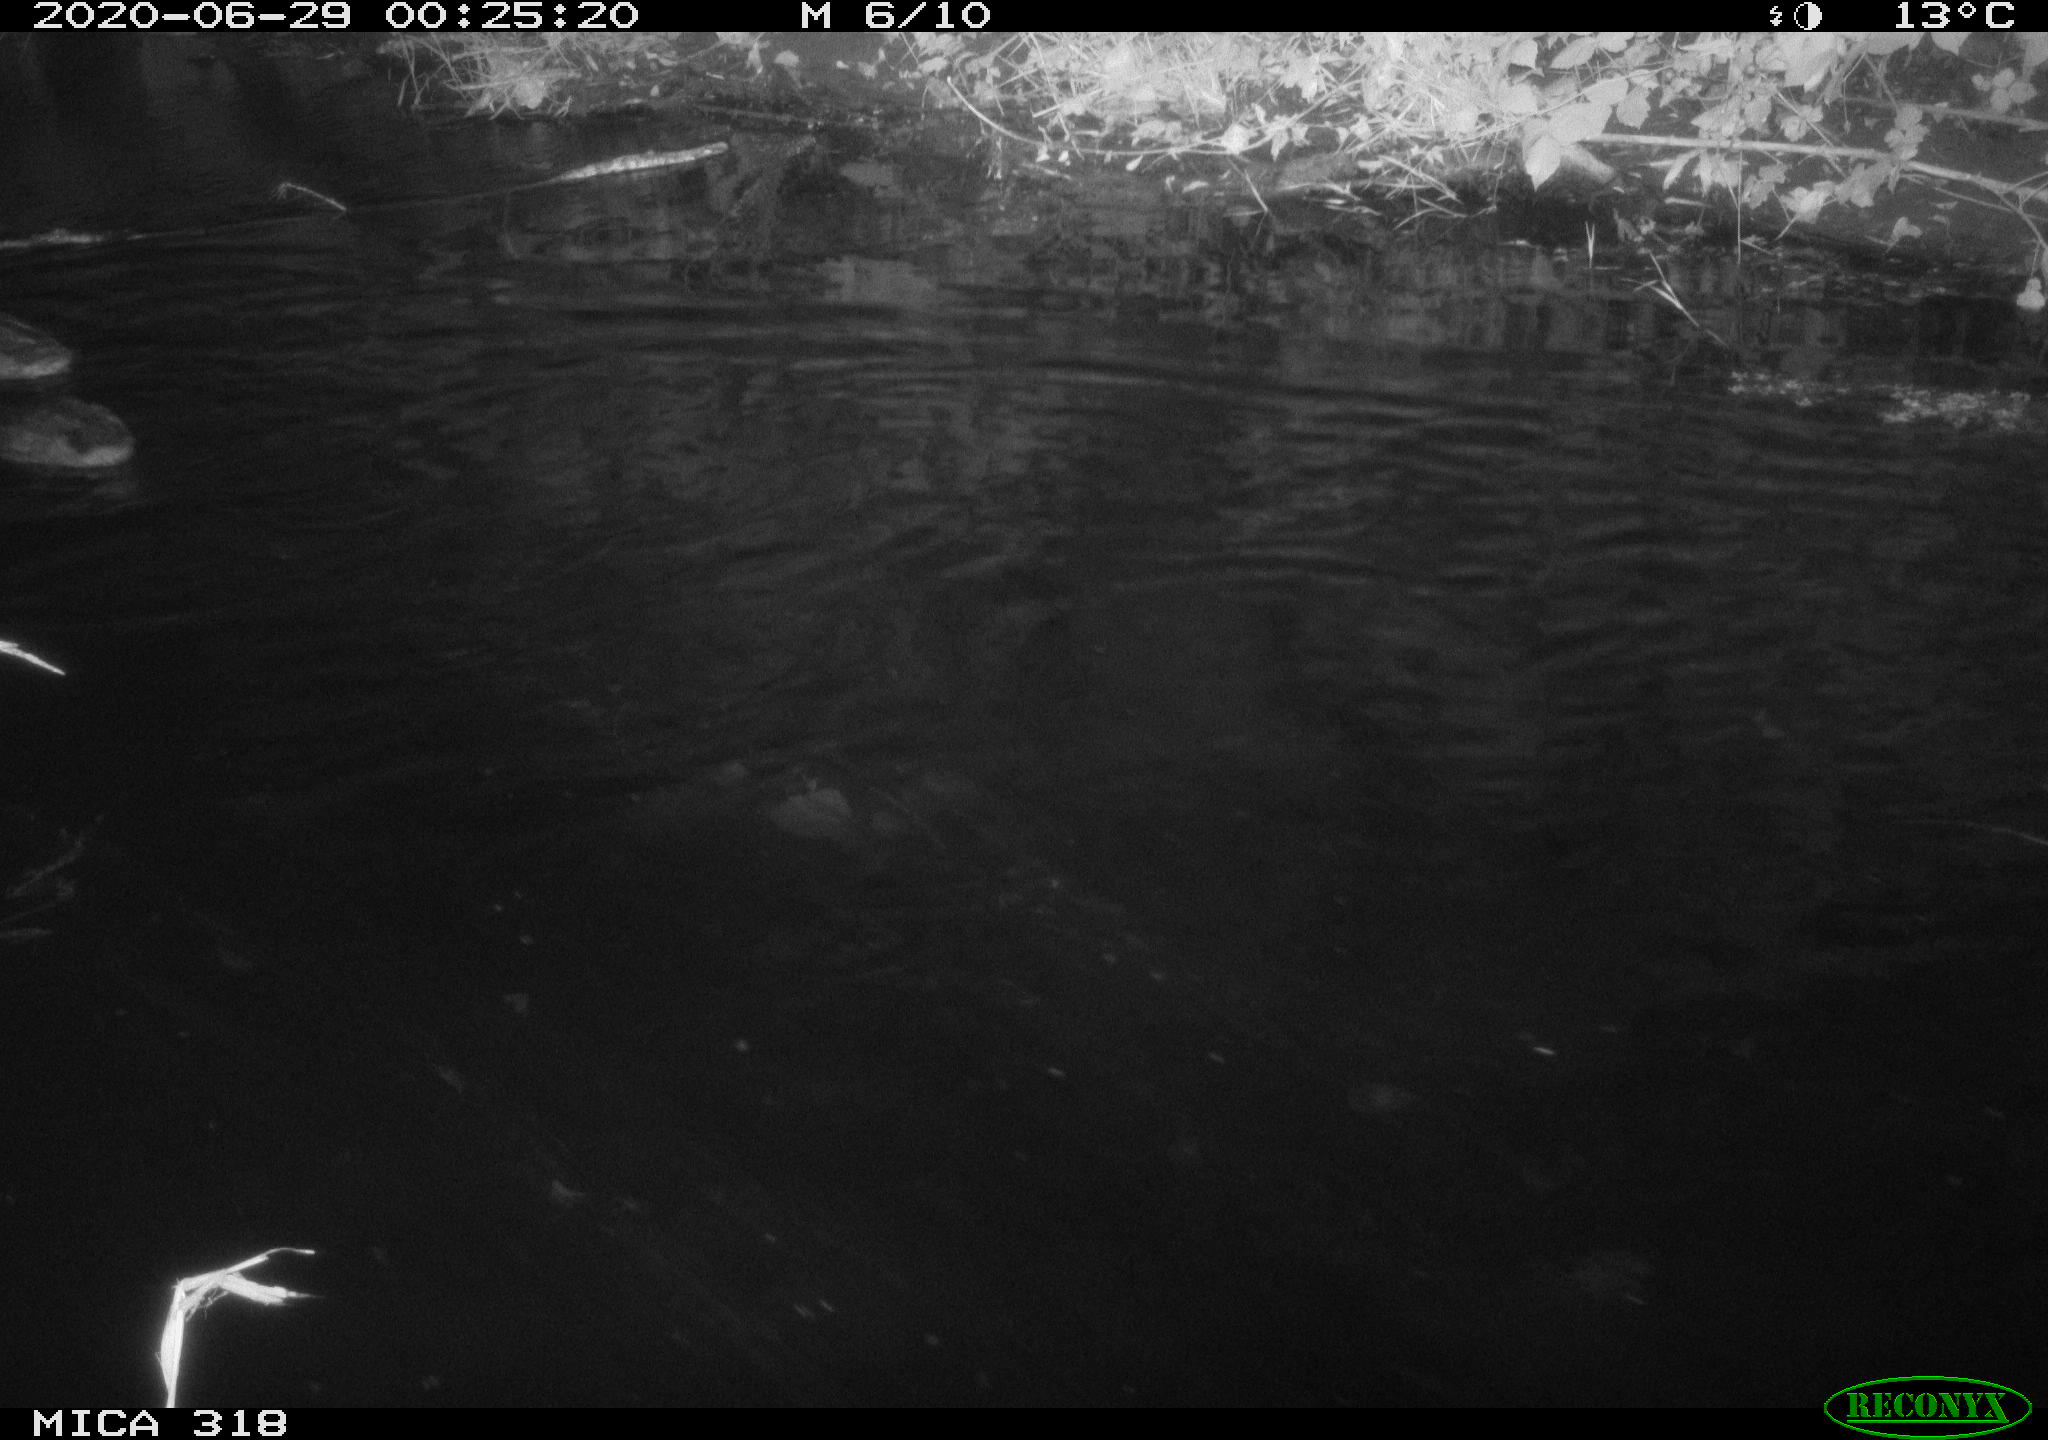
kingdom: Animalia
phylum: Chordata
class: Aves
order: Anseriformes
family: Anatidae
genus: Anas
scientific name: Anas platyrhynchos
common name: Mallard
